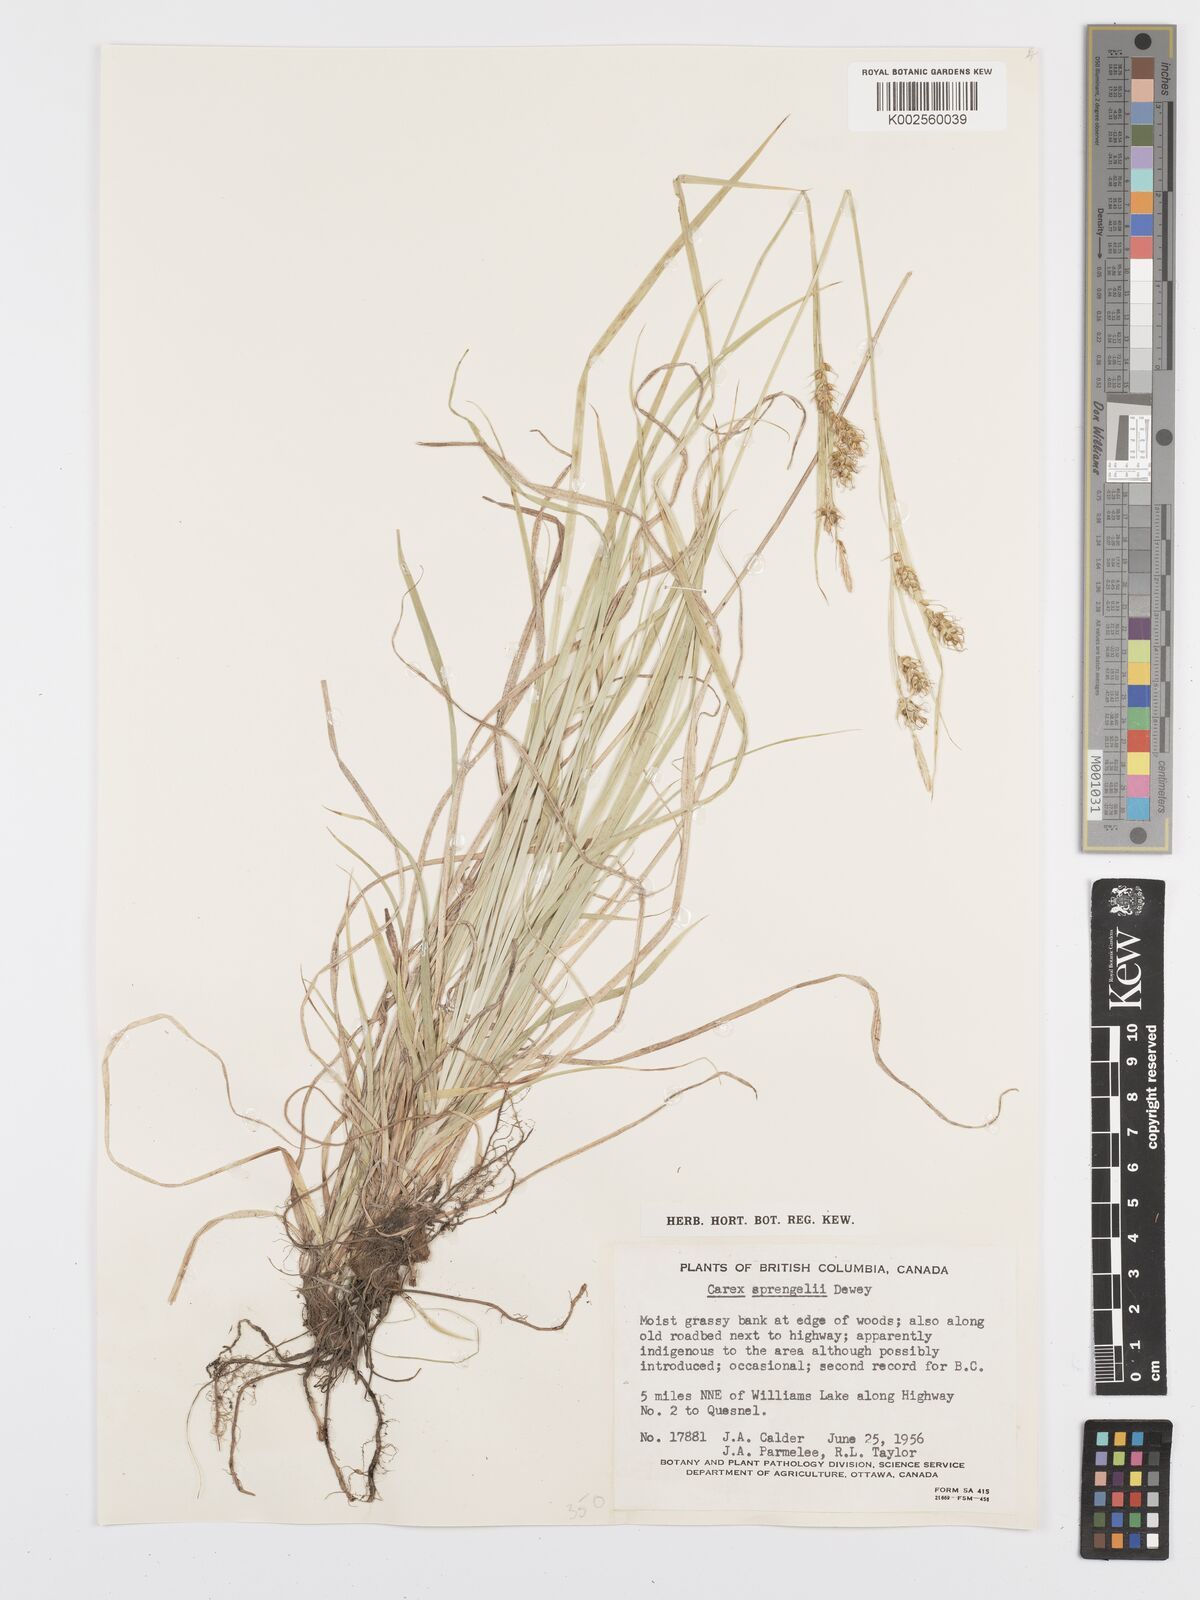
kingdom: Plantae
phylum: Tracheophyta
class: Liliopsida
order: Poales
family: Cyperaceae
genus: Carex
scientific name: Carex sprengelii
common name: Long-beaked sedge
